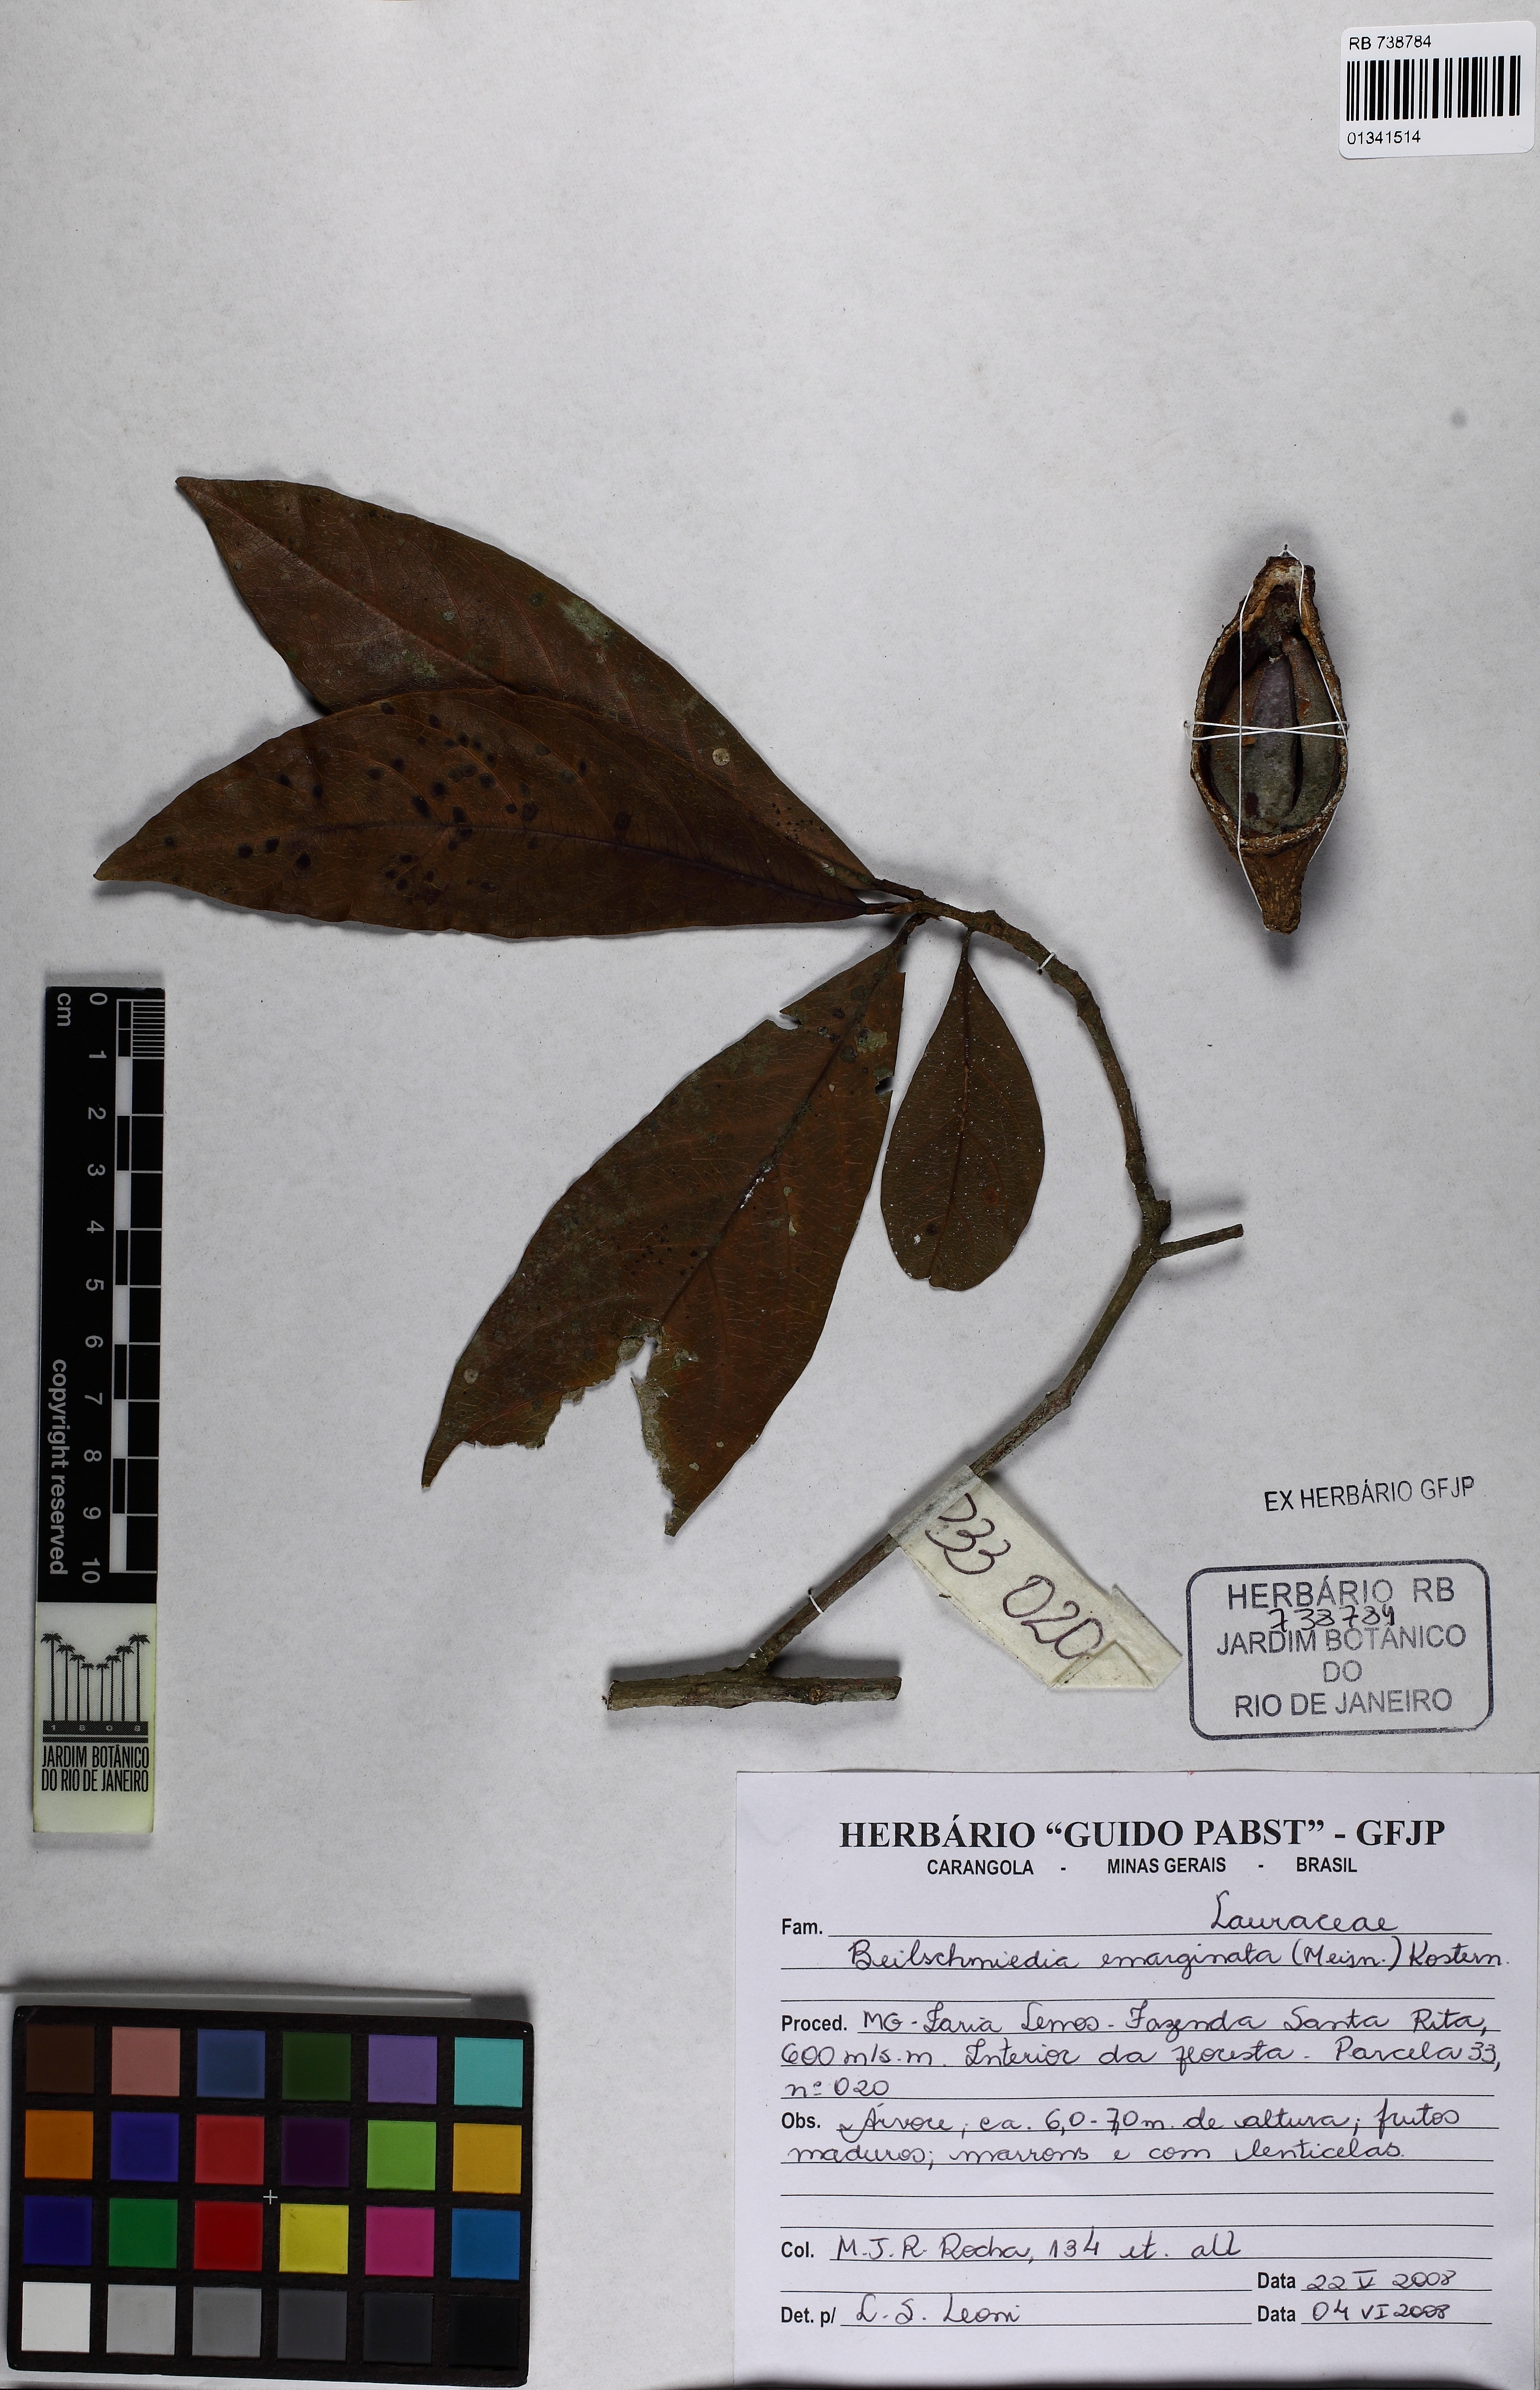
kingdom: Plantae
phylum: Tracheophyta
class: Magnoliopsida
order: Laurales
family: Lauraceae
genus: Beilschmiedia
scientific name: Beilschmiedia emarginata
